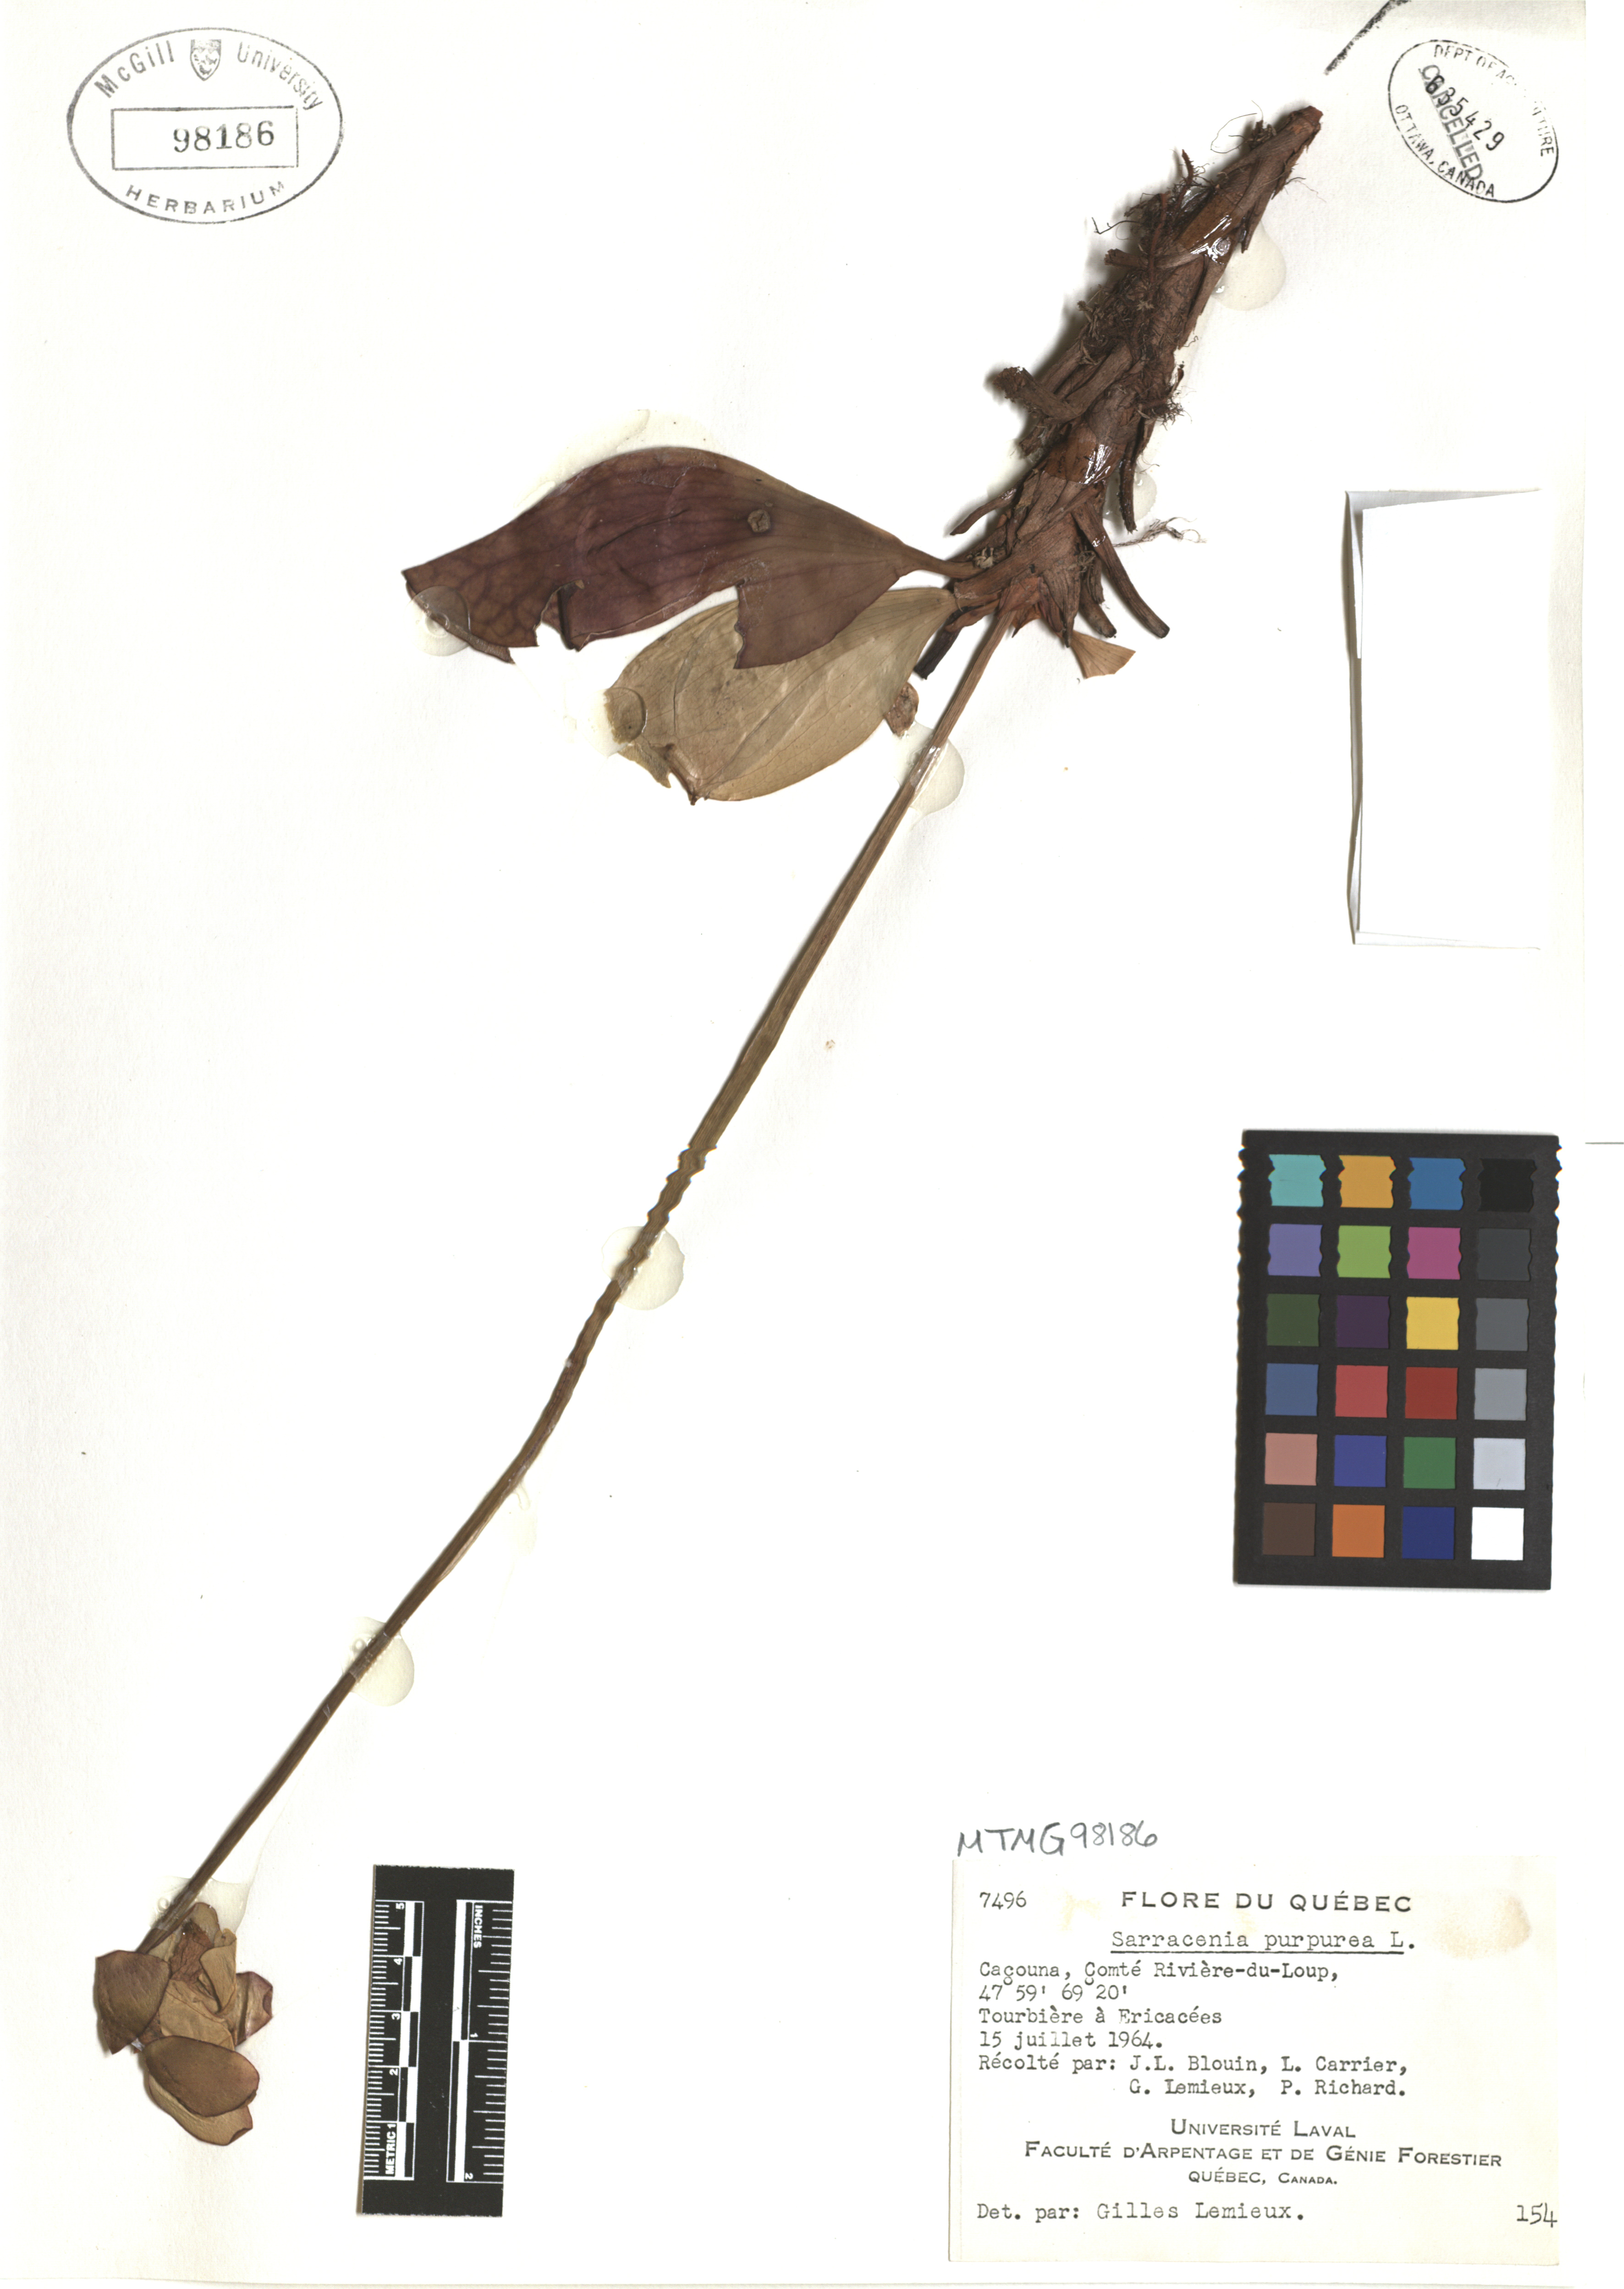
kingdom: Plantae
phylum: Tracheophyta
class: Magnoliopsida
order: Ericales
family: Sarraceniaceae
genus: Sarracenia
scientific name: Sarracenia purpurea
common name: Pitcherplant
